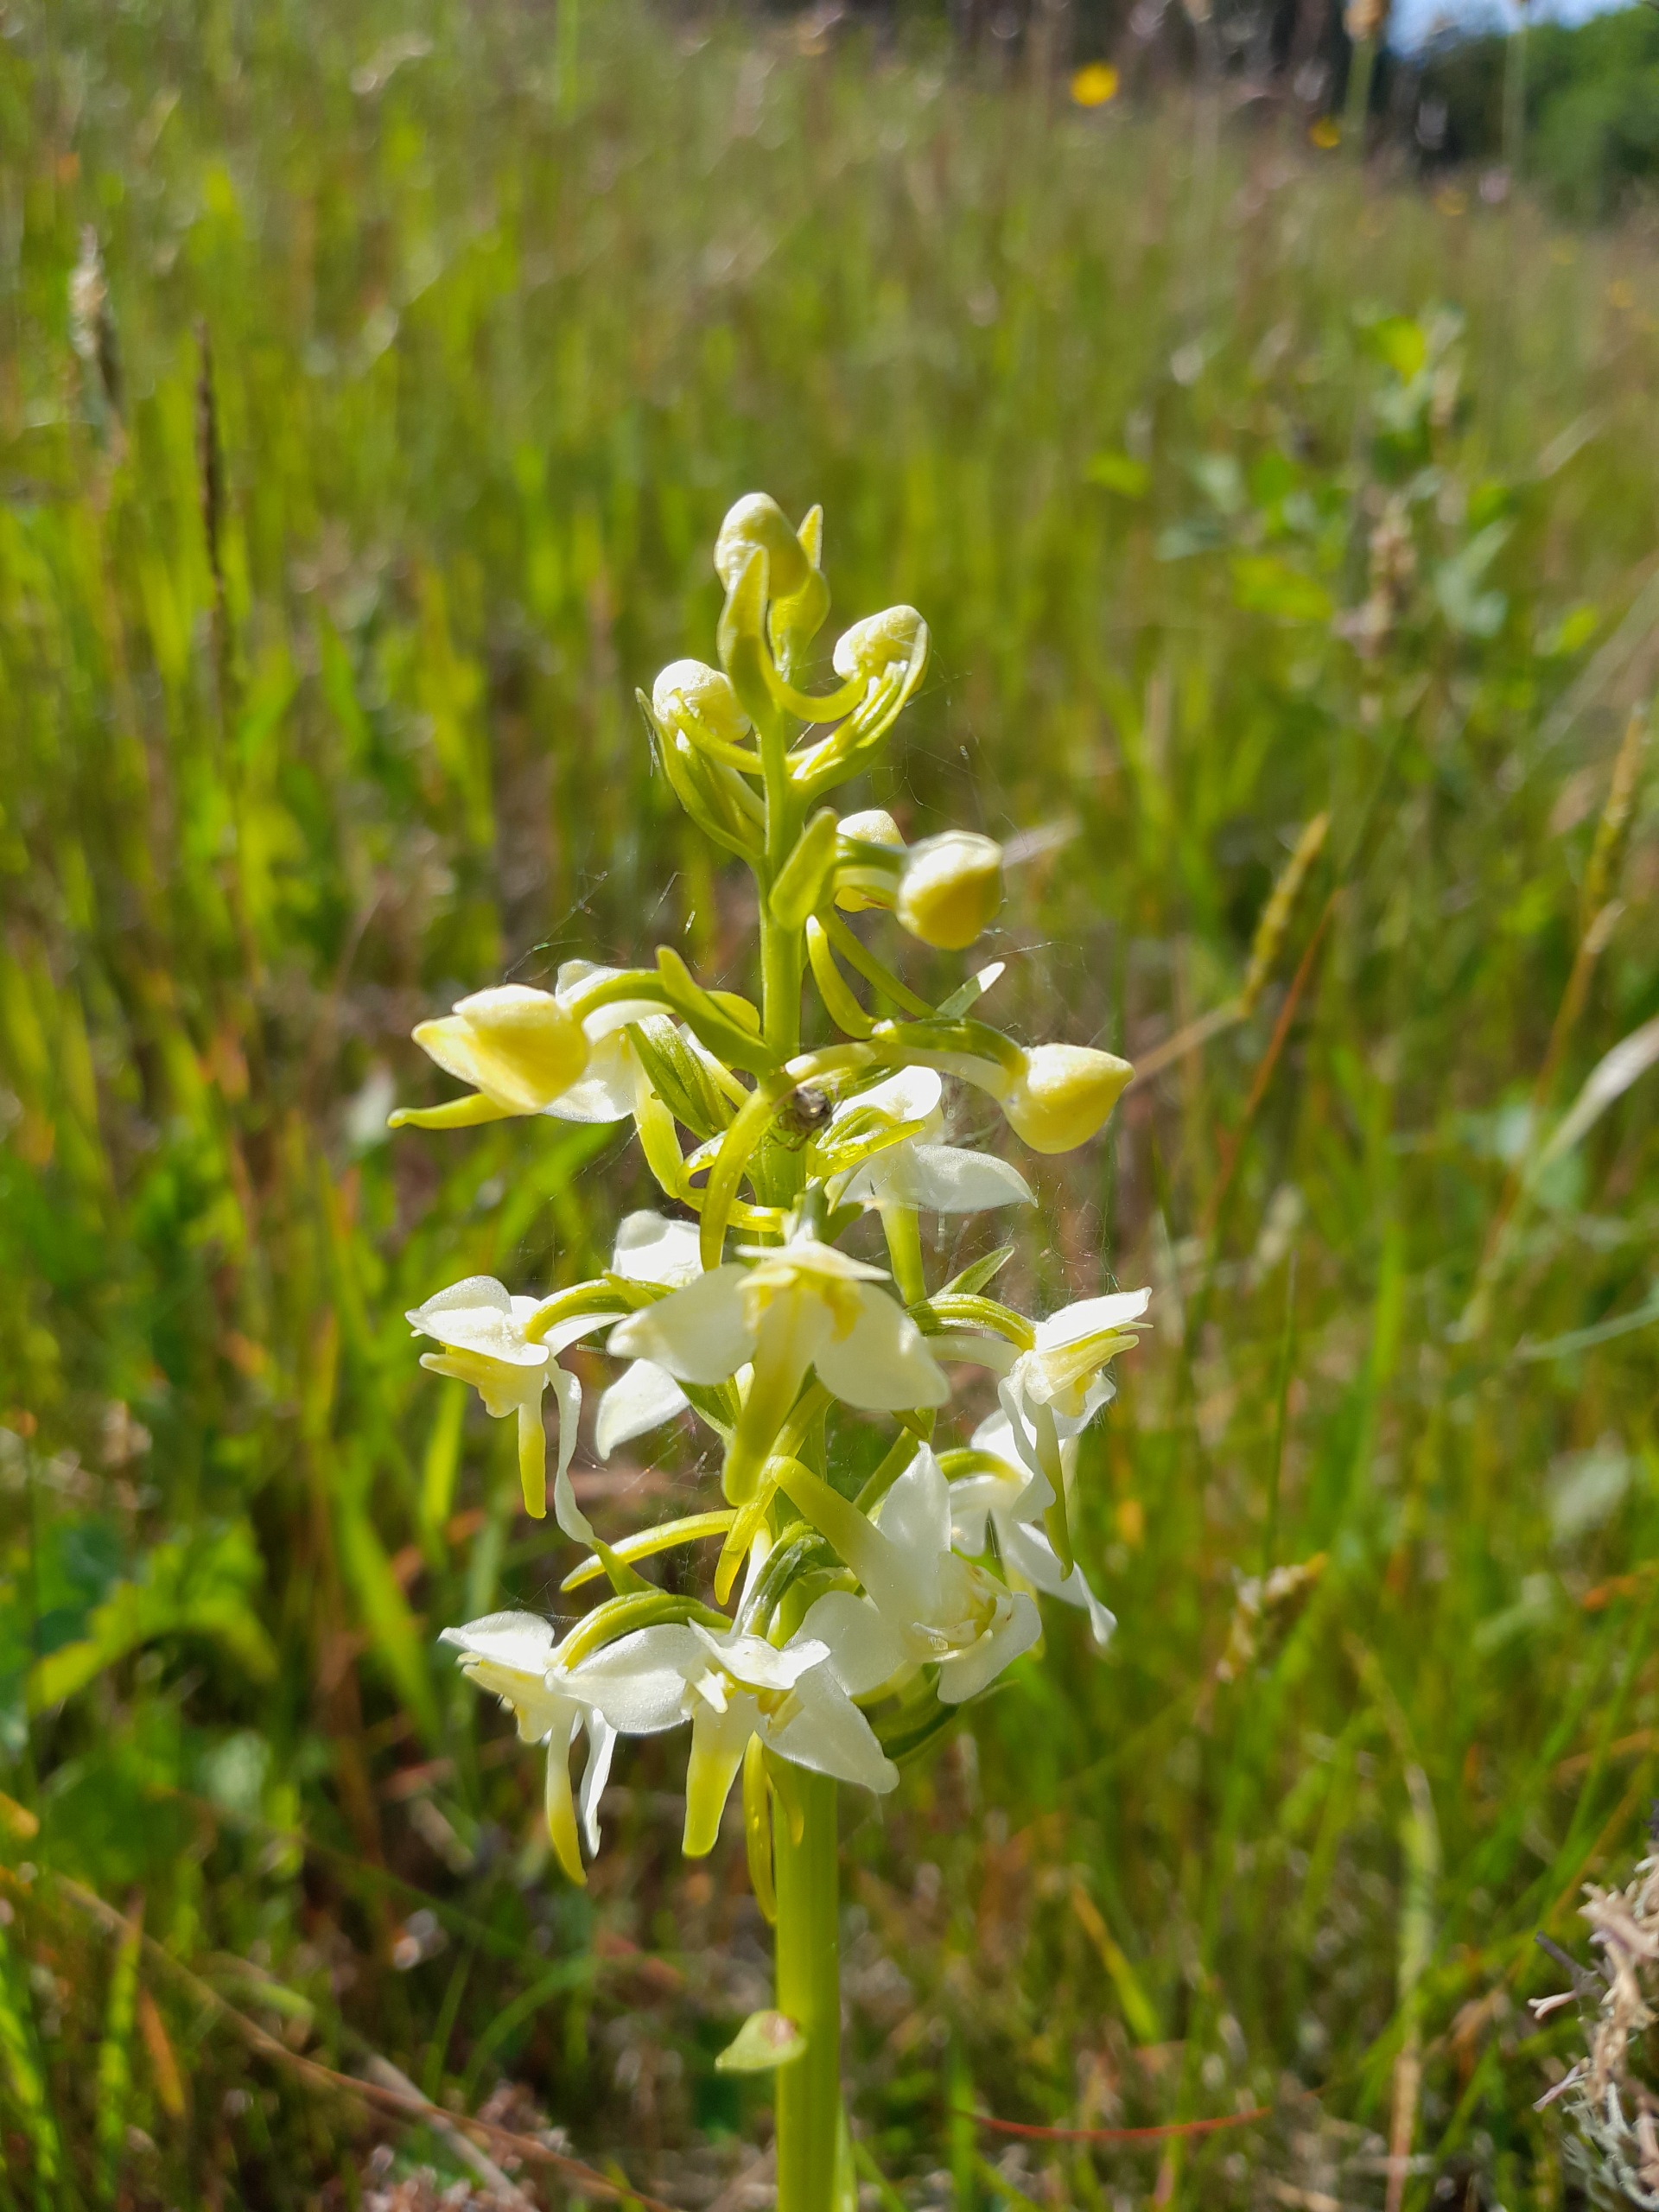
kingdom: Plantae
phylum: Tracheophyta
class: Liliopsida
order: Asparagales
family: Orchidaceae
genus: Platanthera
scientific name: Platanthera chlorantha
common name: Skov-gøgelilje
